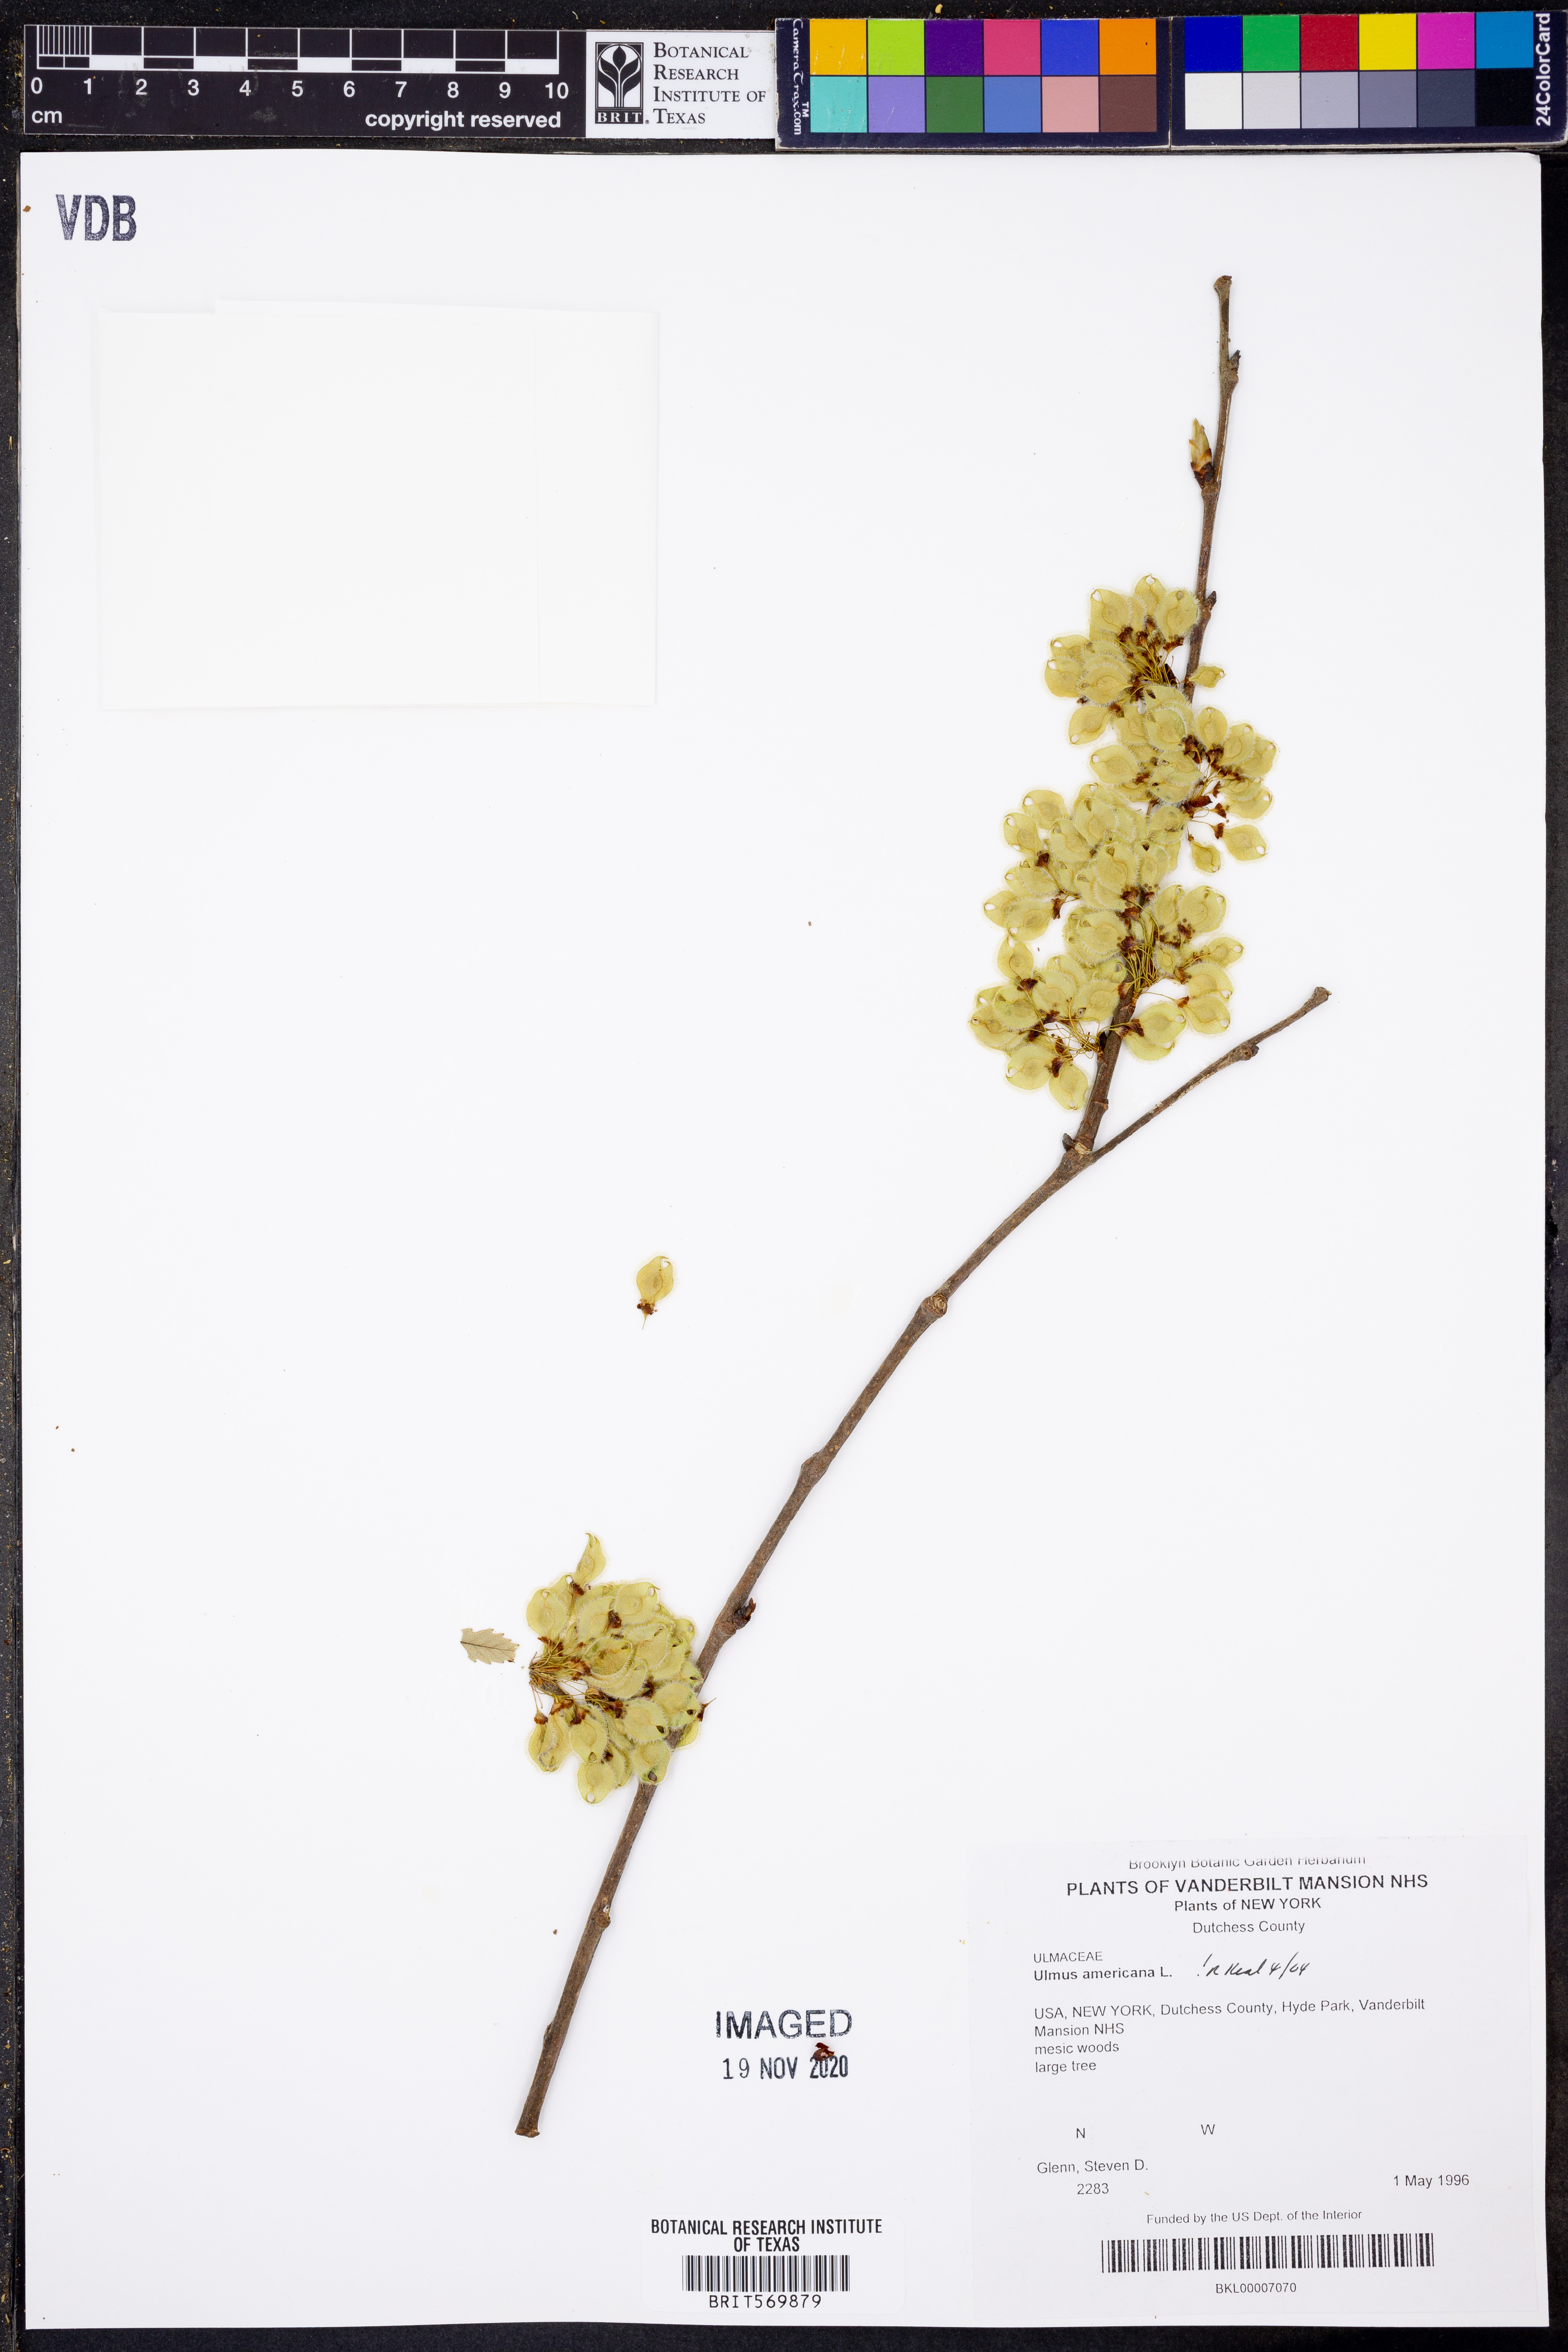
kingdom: Plantae
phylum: Tracheophyta
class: Magnoliopsida
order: Rosales
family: Ulmaceae
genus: Ulmus
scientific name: Ulmus americana
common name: American elm
